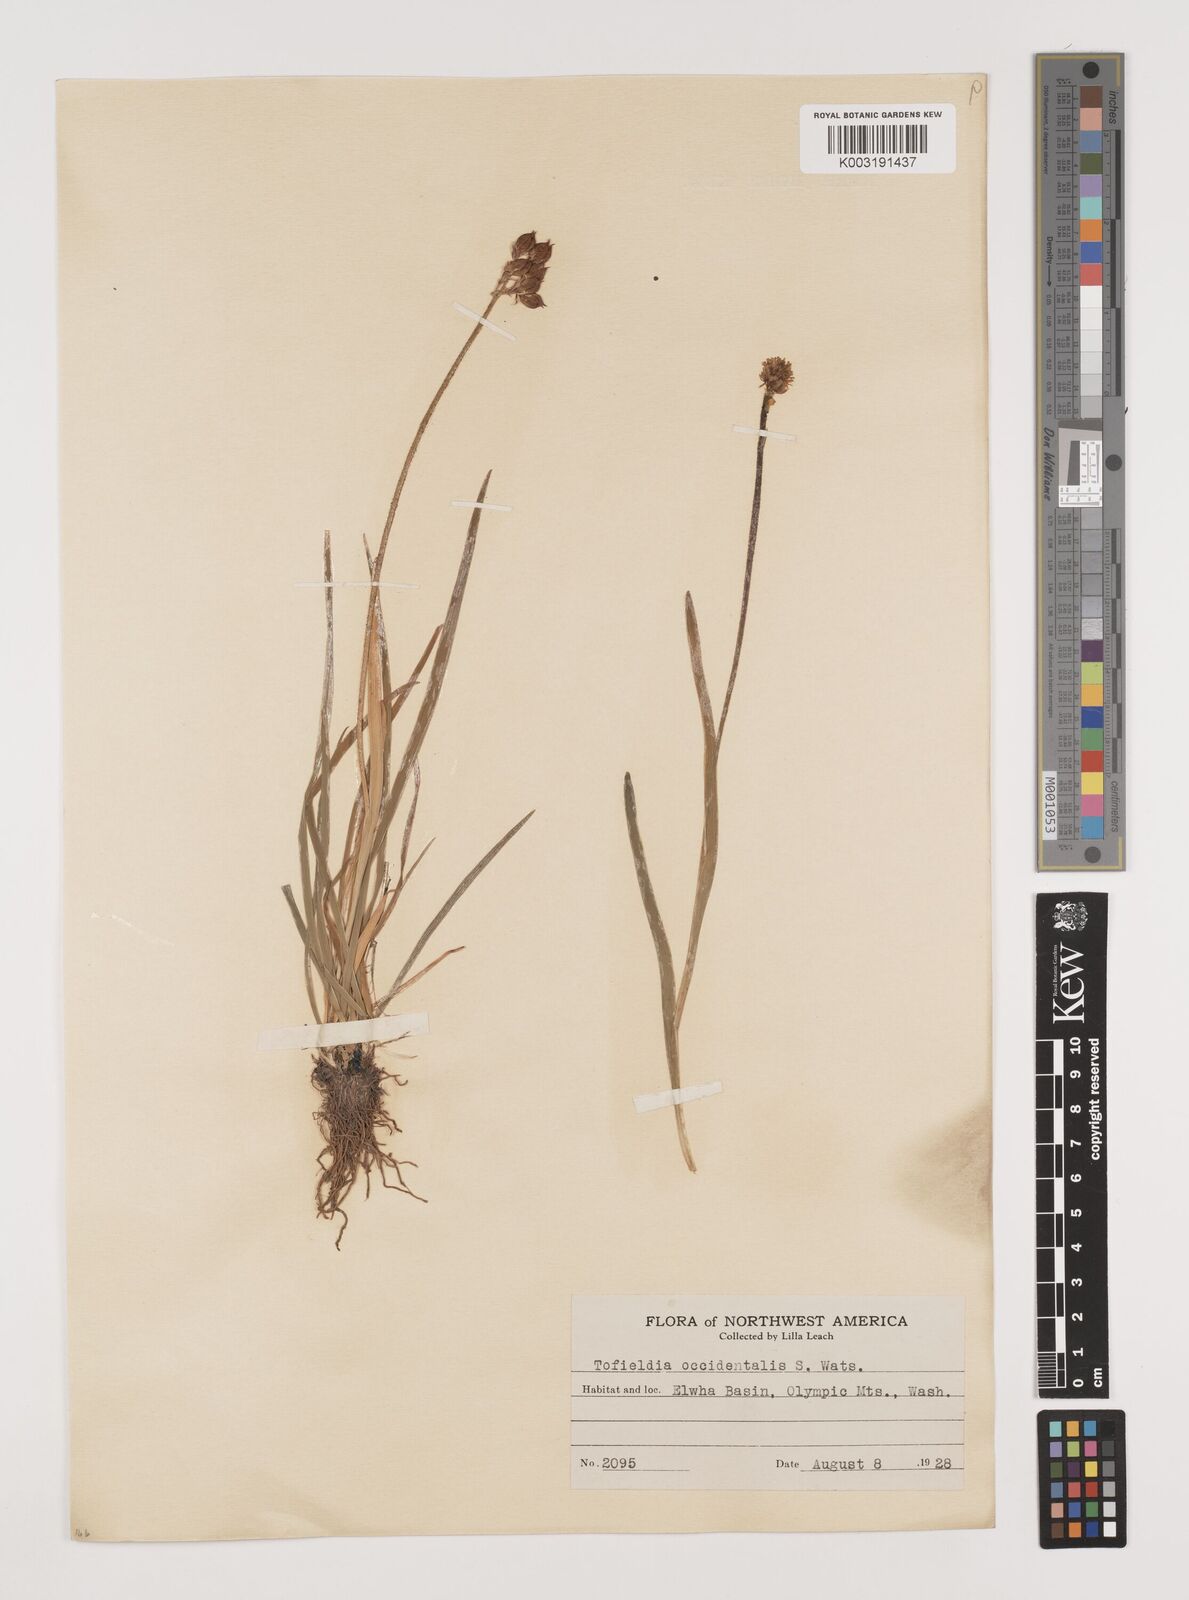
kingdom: Plantae
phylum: Tracheophyta
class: Liliopsida
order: Alismatales
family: Tofieldiaceae
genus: Triantha
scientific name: Triantha occidentalis
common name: Western false asphodel
